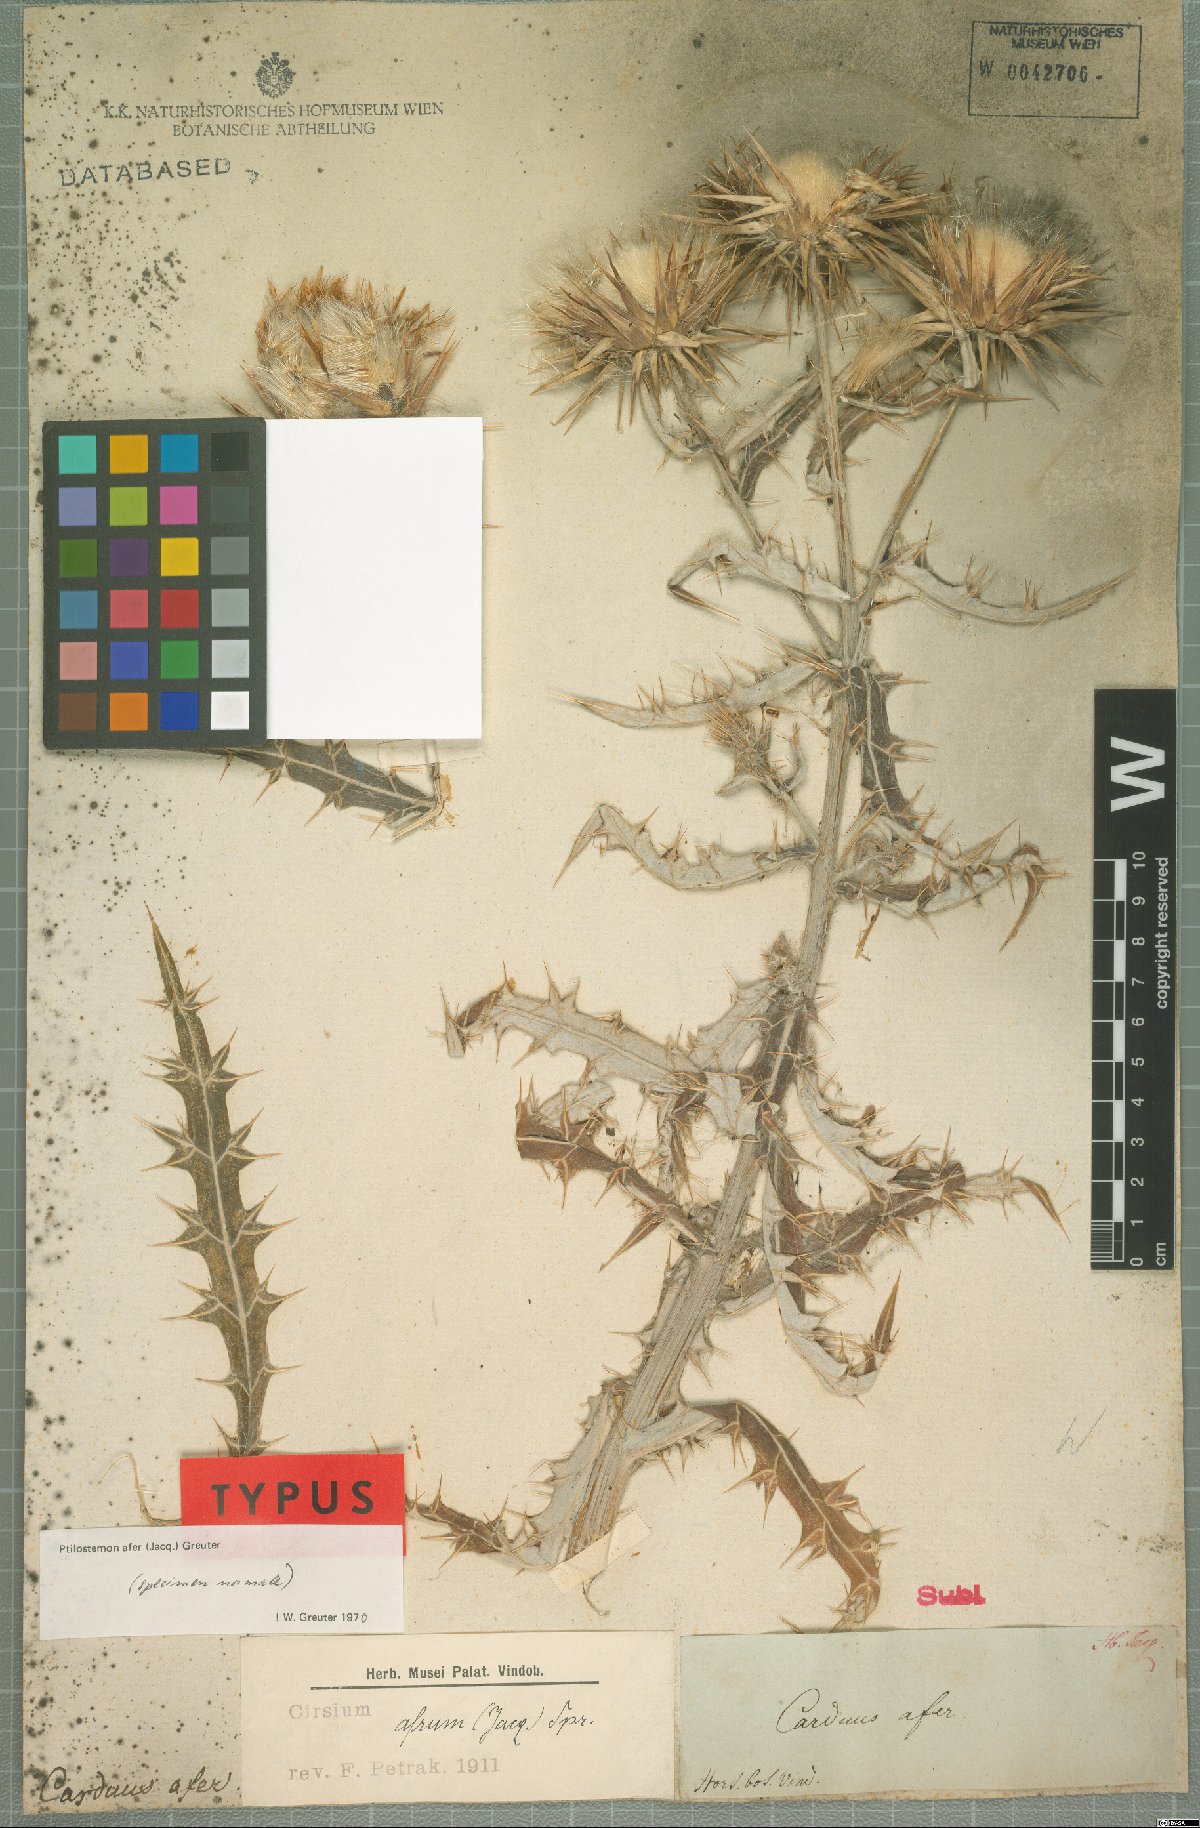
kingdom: Plantae
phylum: Tracheophyta
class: Magnoliopsida
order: Asterales
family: Asteraceae
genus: Ptilostemon
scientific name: Ptilostemon afer
